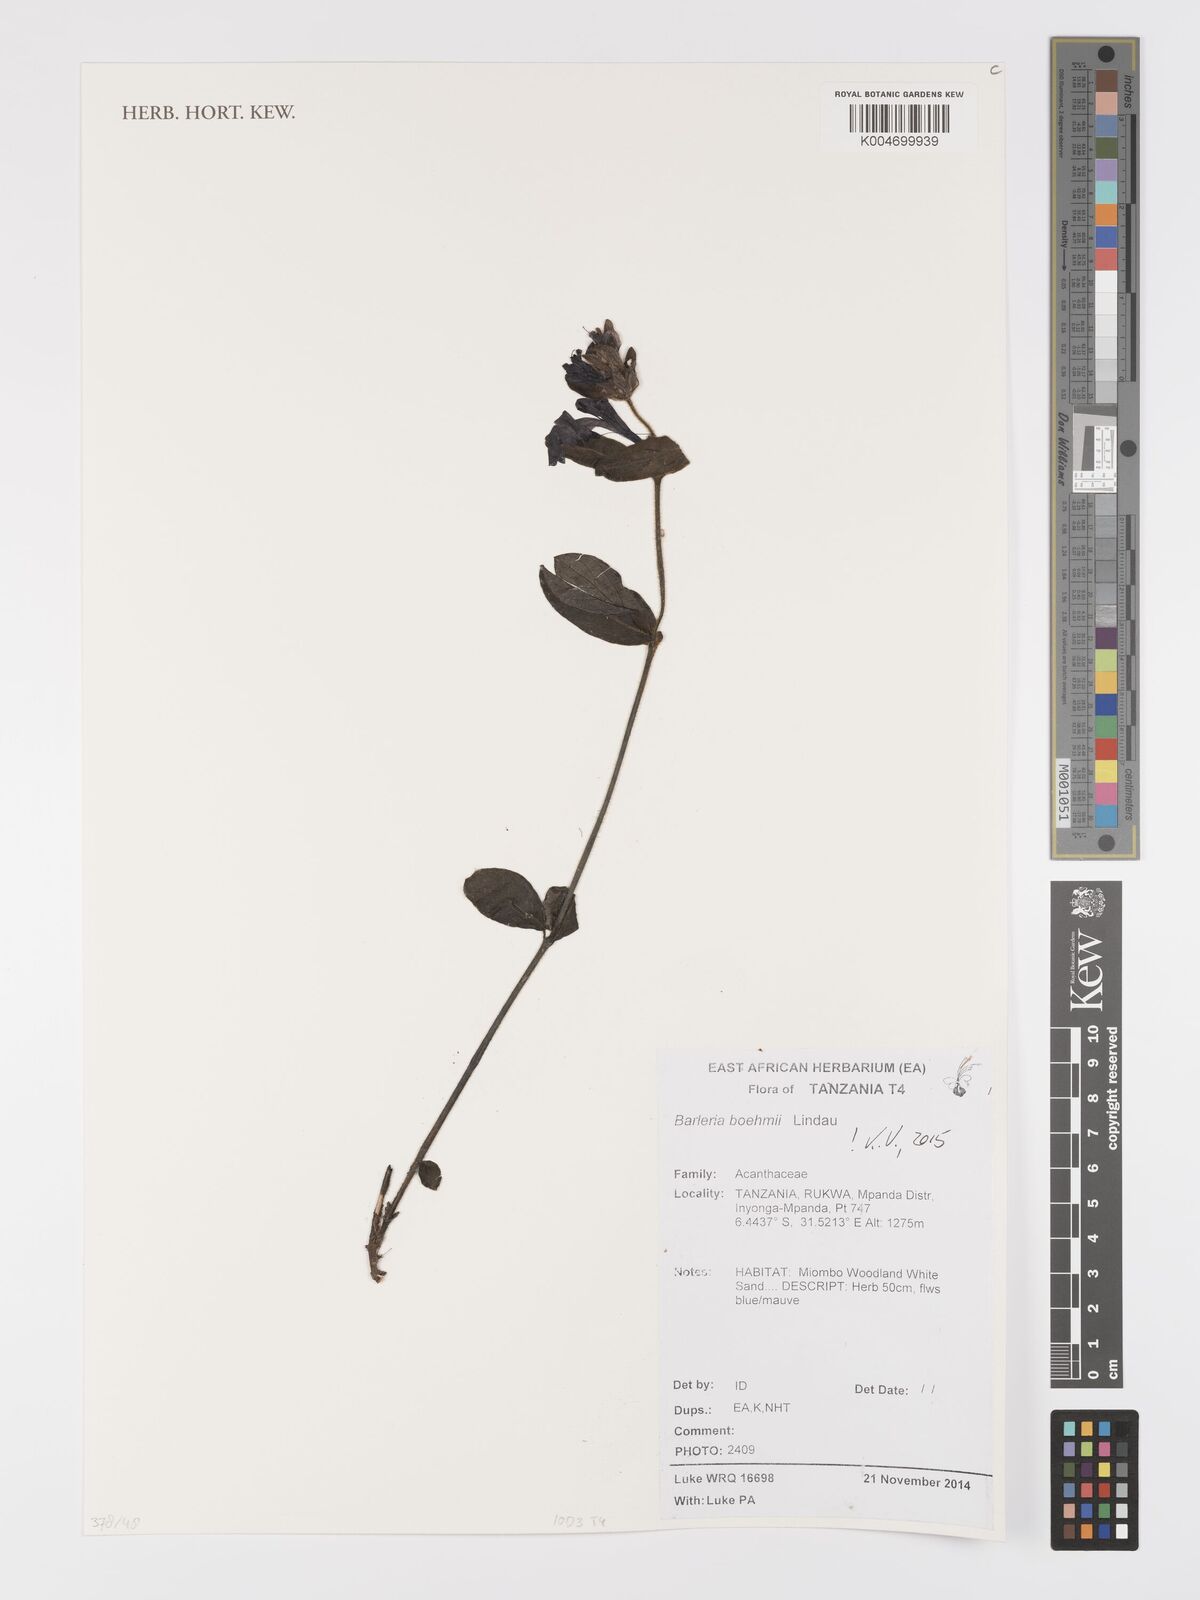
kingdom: Plantae
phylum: Tracheophyta
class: Magnoliopsida
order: Lamiales
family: Acanthaceae
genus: Barleria
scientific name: Barleria boehmii
